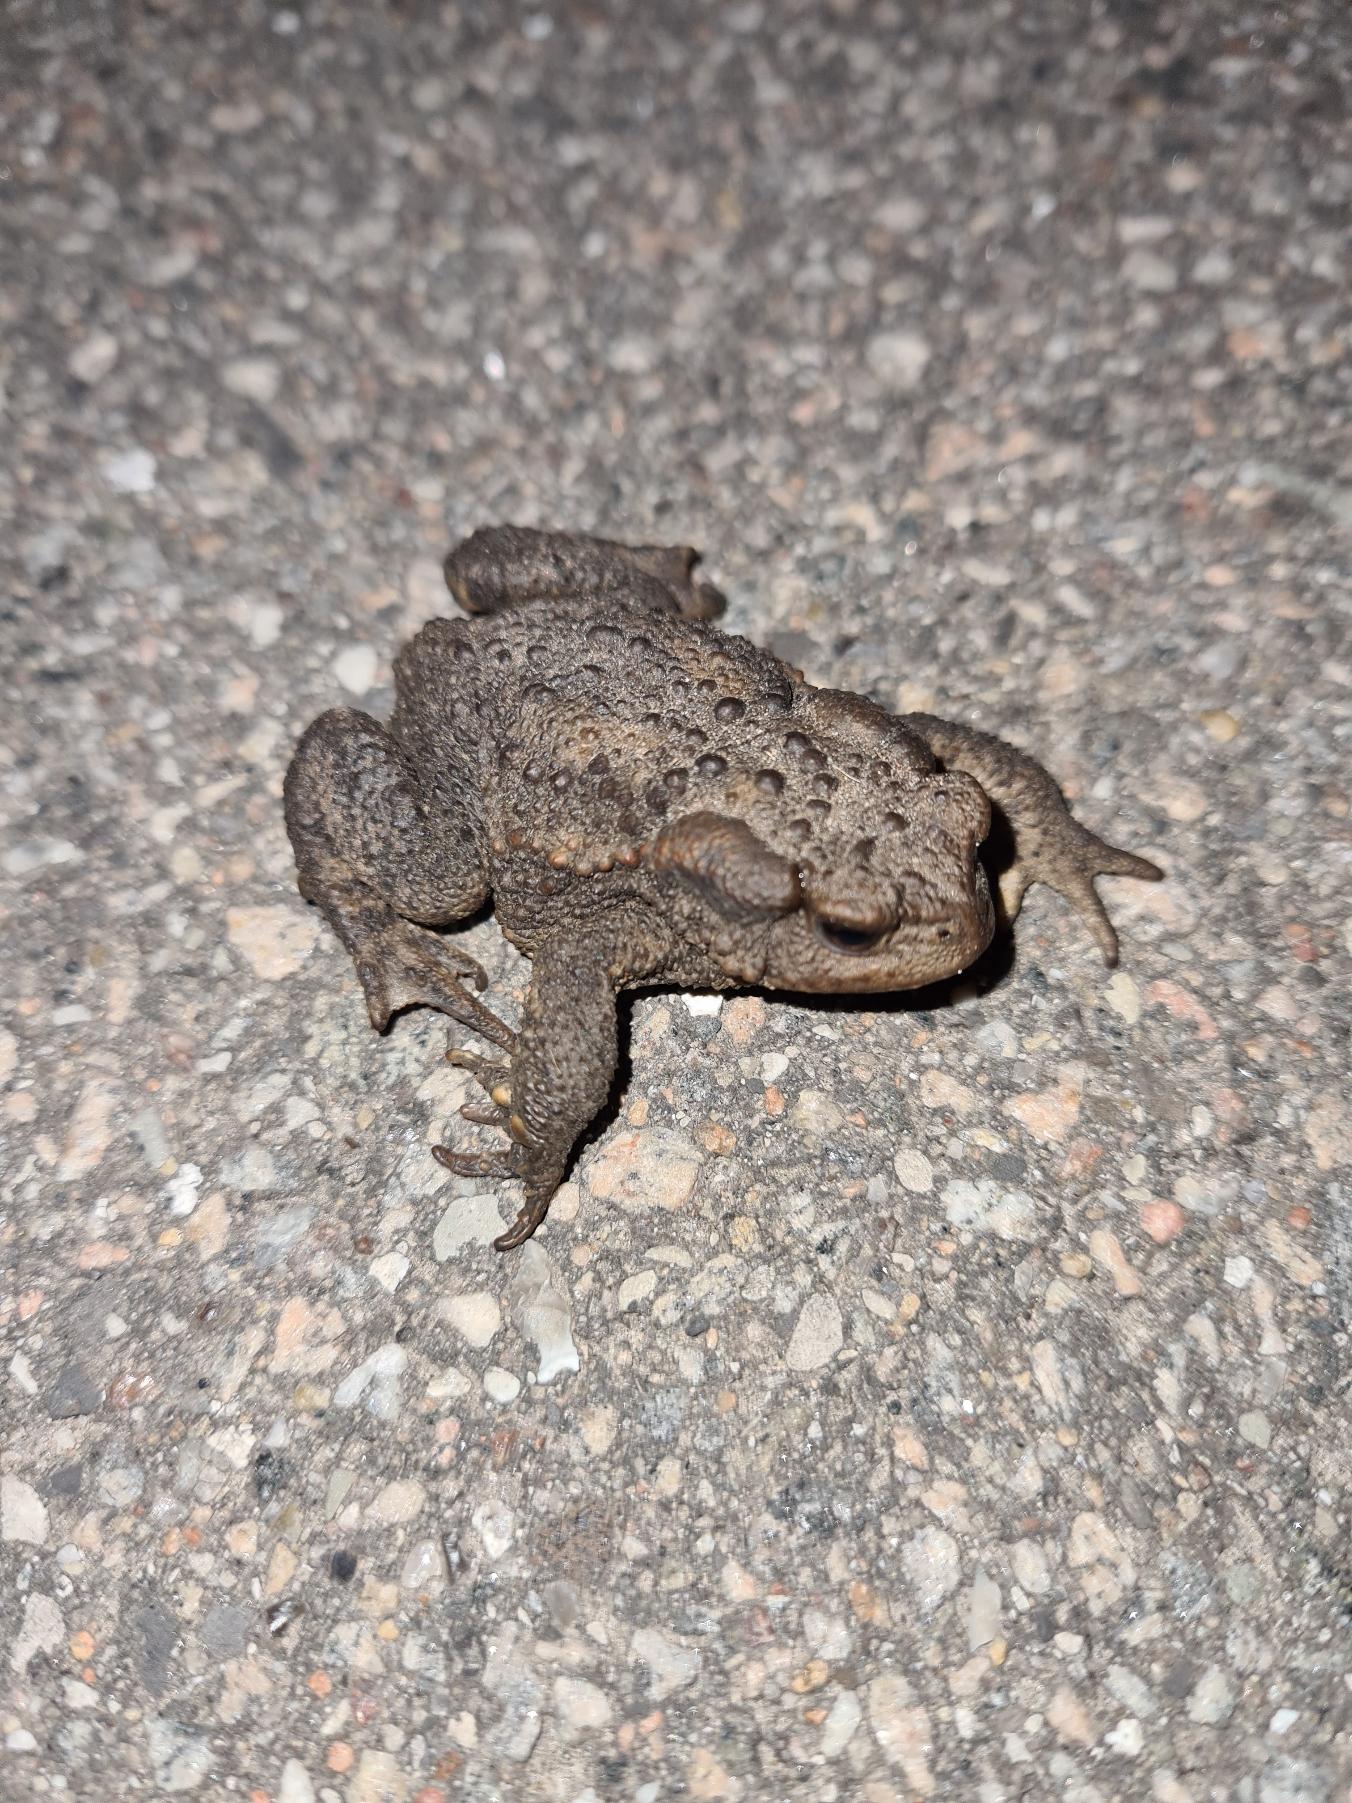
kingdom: Animalia
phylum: Chordata
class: Amphibia
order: Anura
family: Bufonidae
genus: Bufo
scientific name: Bufo bufo
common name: Skrubtudse
